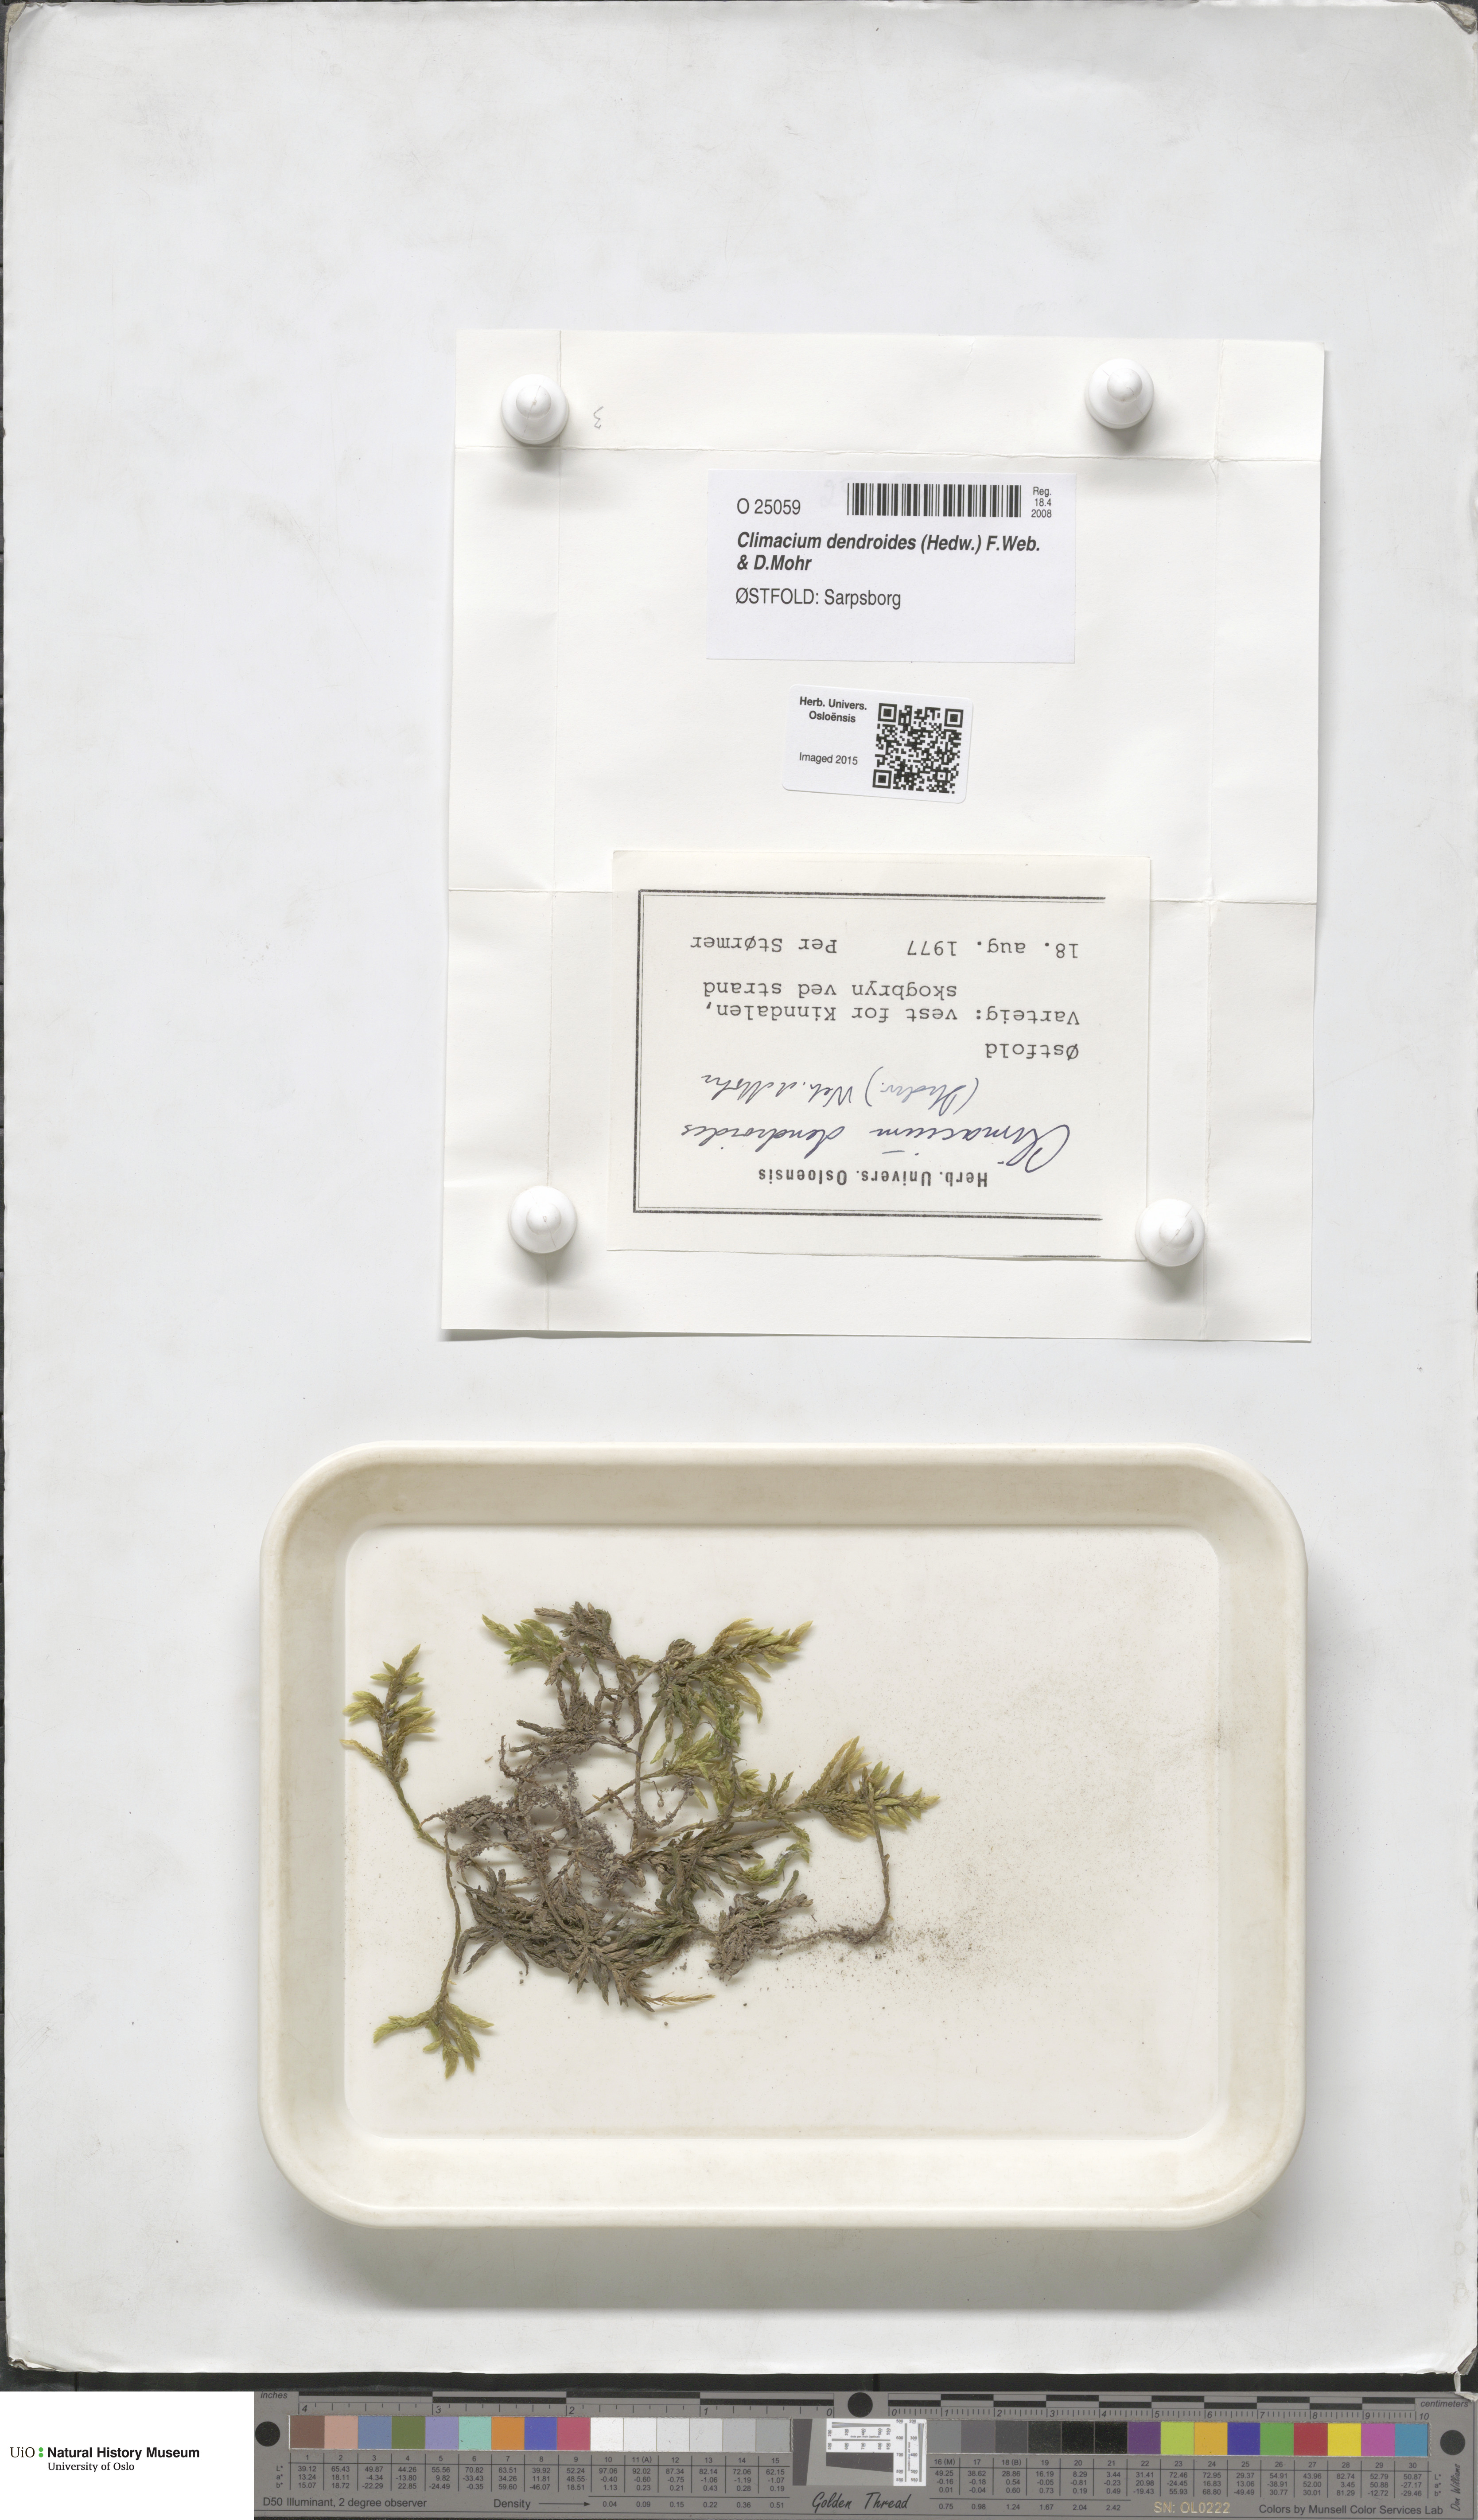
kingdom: Plantae
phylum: Bryophyta
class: Bryopsida
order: Hypnales
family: Climaciaceae
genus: Climacium
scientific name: Climacium dendroides
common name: Northern tree moss
